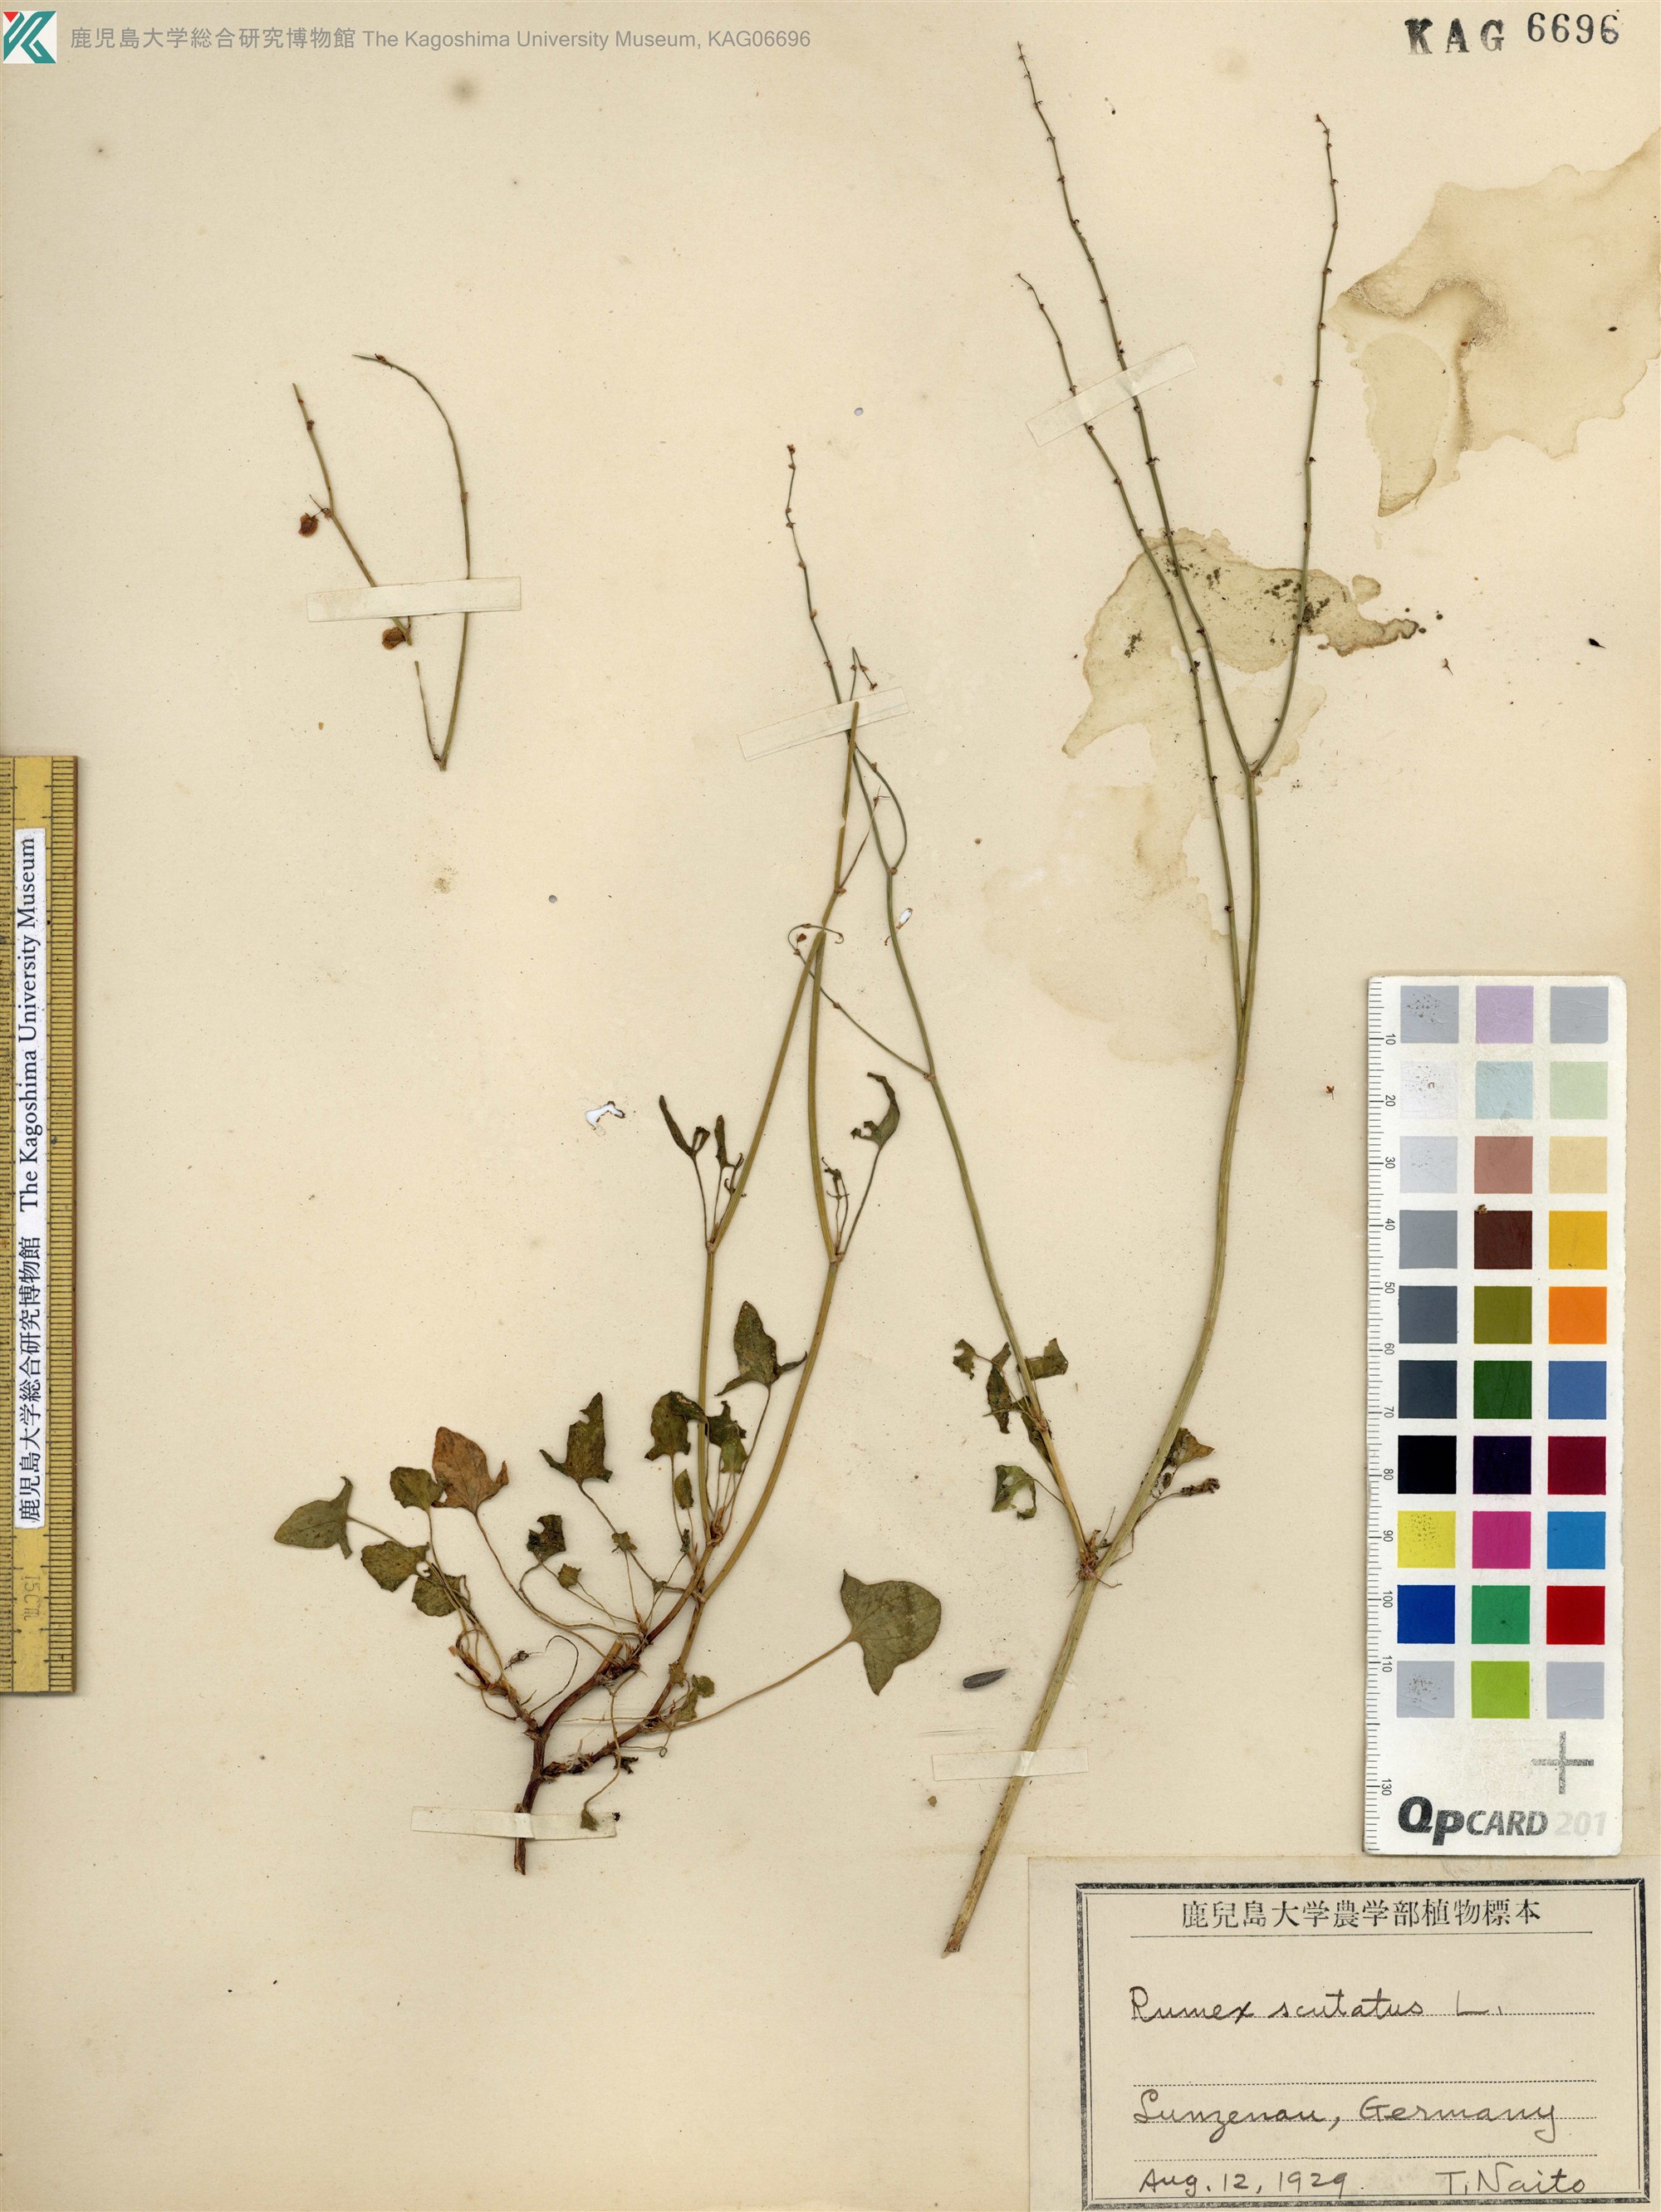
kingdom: Plantae
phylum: Tracheophyta
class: Magnoliopsida
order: Caryophyllales
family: Polygonaceae
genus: Rumex
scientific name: Rumex scutatus
